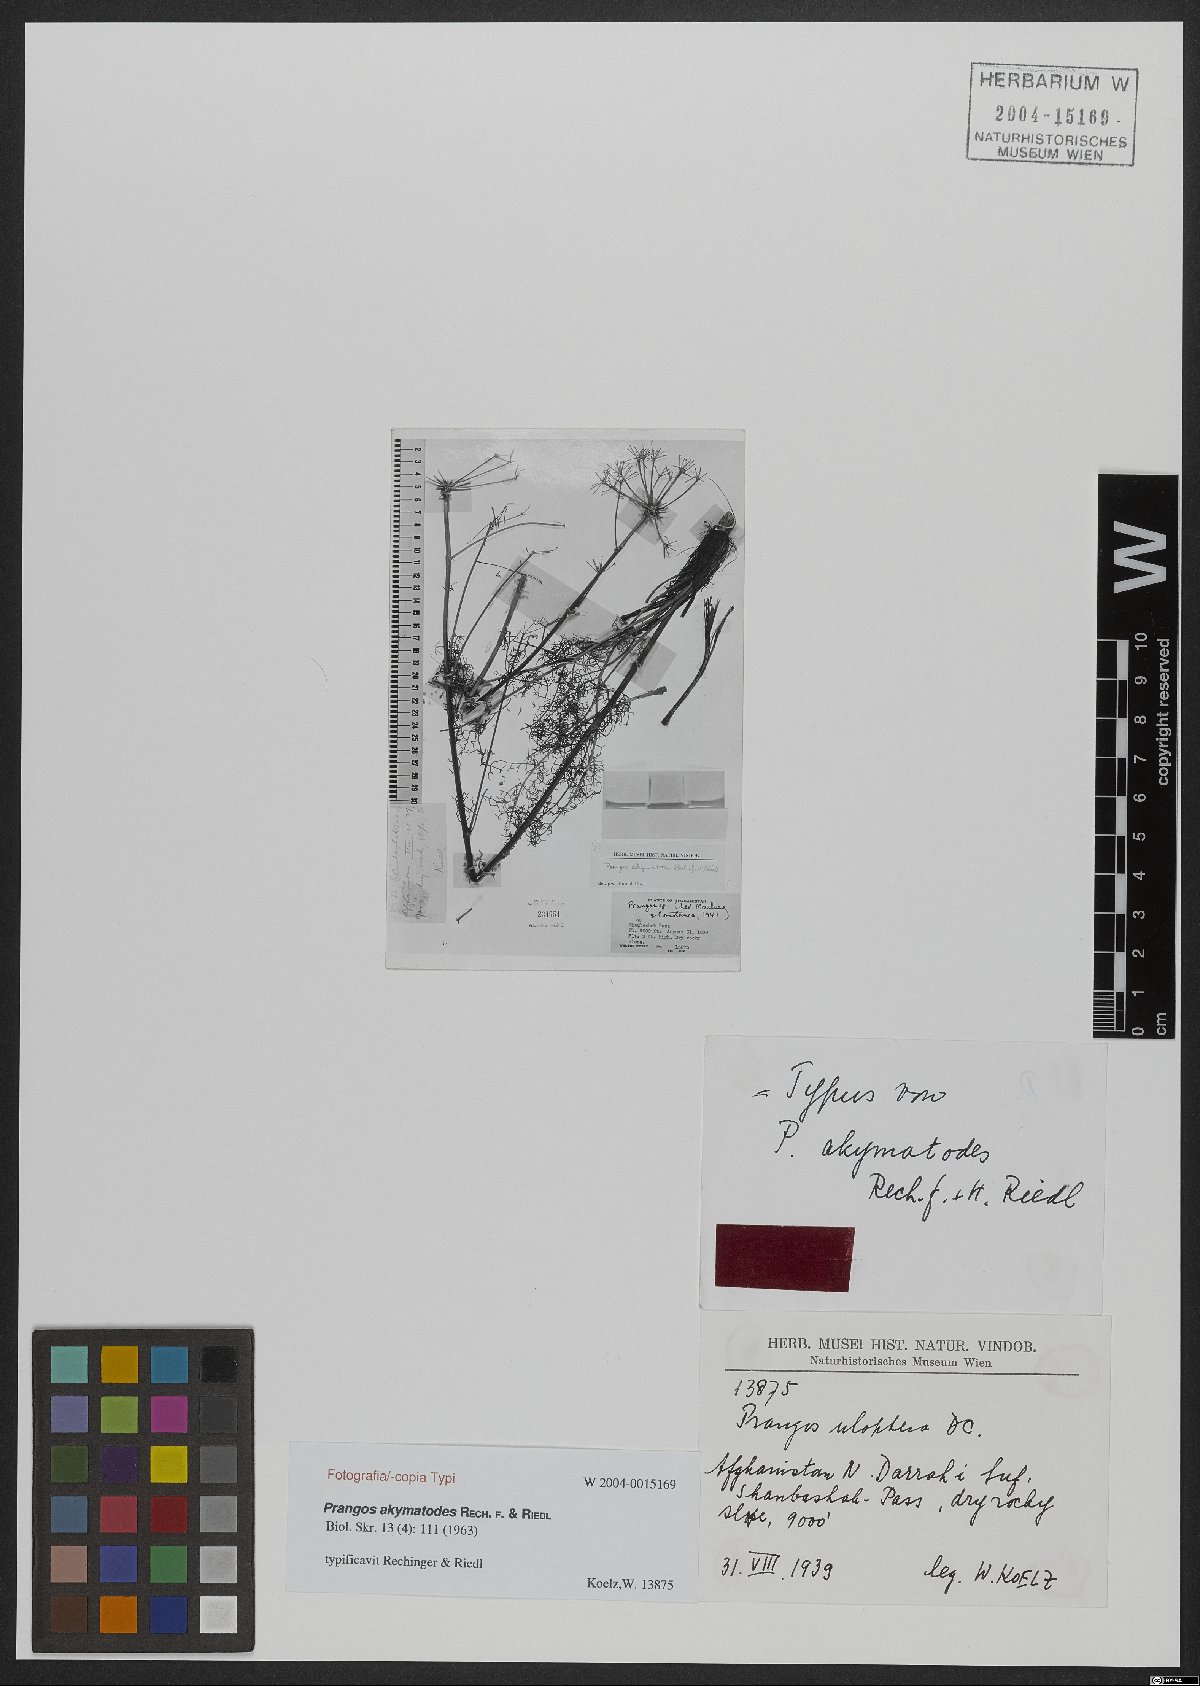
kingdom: Plantae
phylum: Tracheophyta
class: Magnoliopsida
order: Apiales
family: Apiaceae
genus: Prangos
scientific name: Prangos akymatodes
